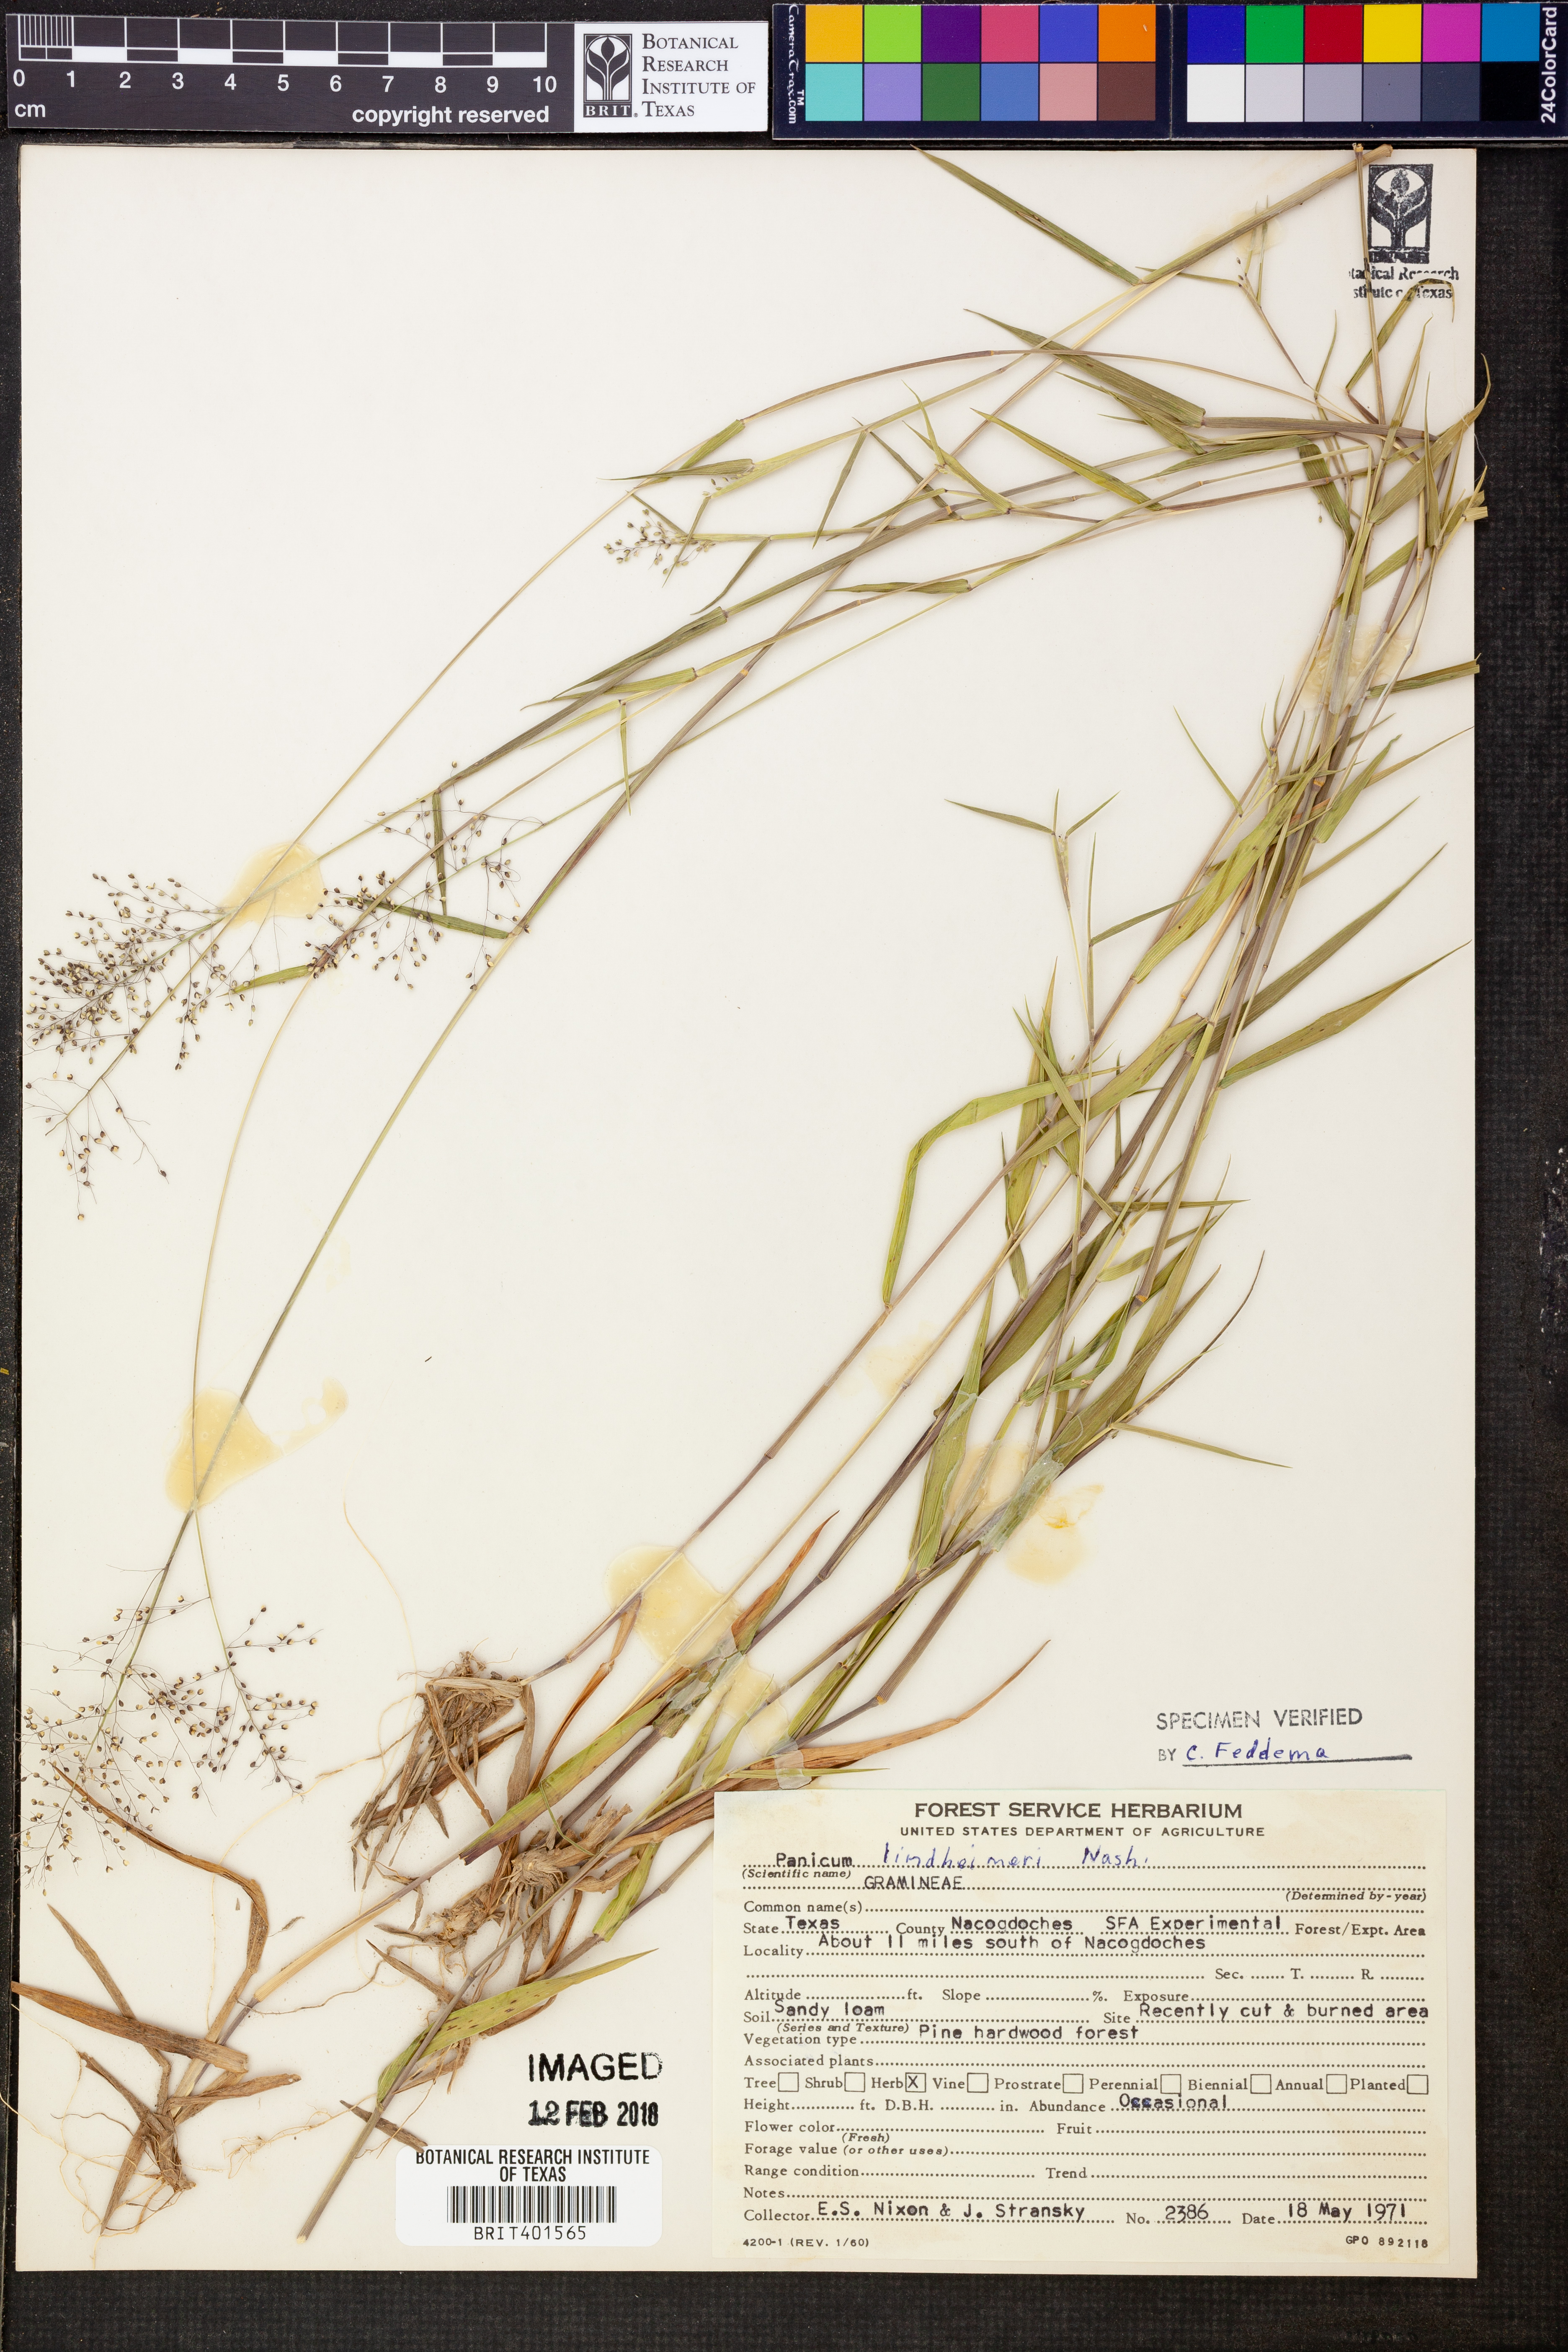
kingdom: Plantae
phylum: Tracheophyta
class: Liliopsida
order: Poales
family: Poaceae
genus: Dichanthelium
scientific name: Dichanthelium lindheimeri
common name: Lindheimer's panicgrass
